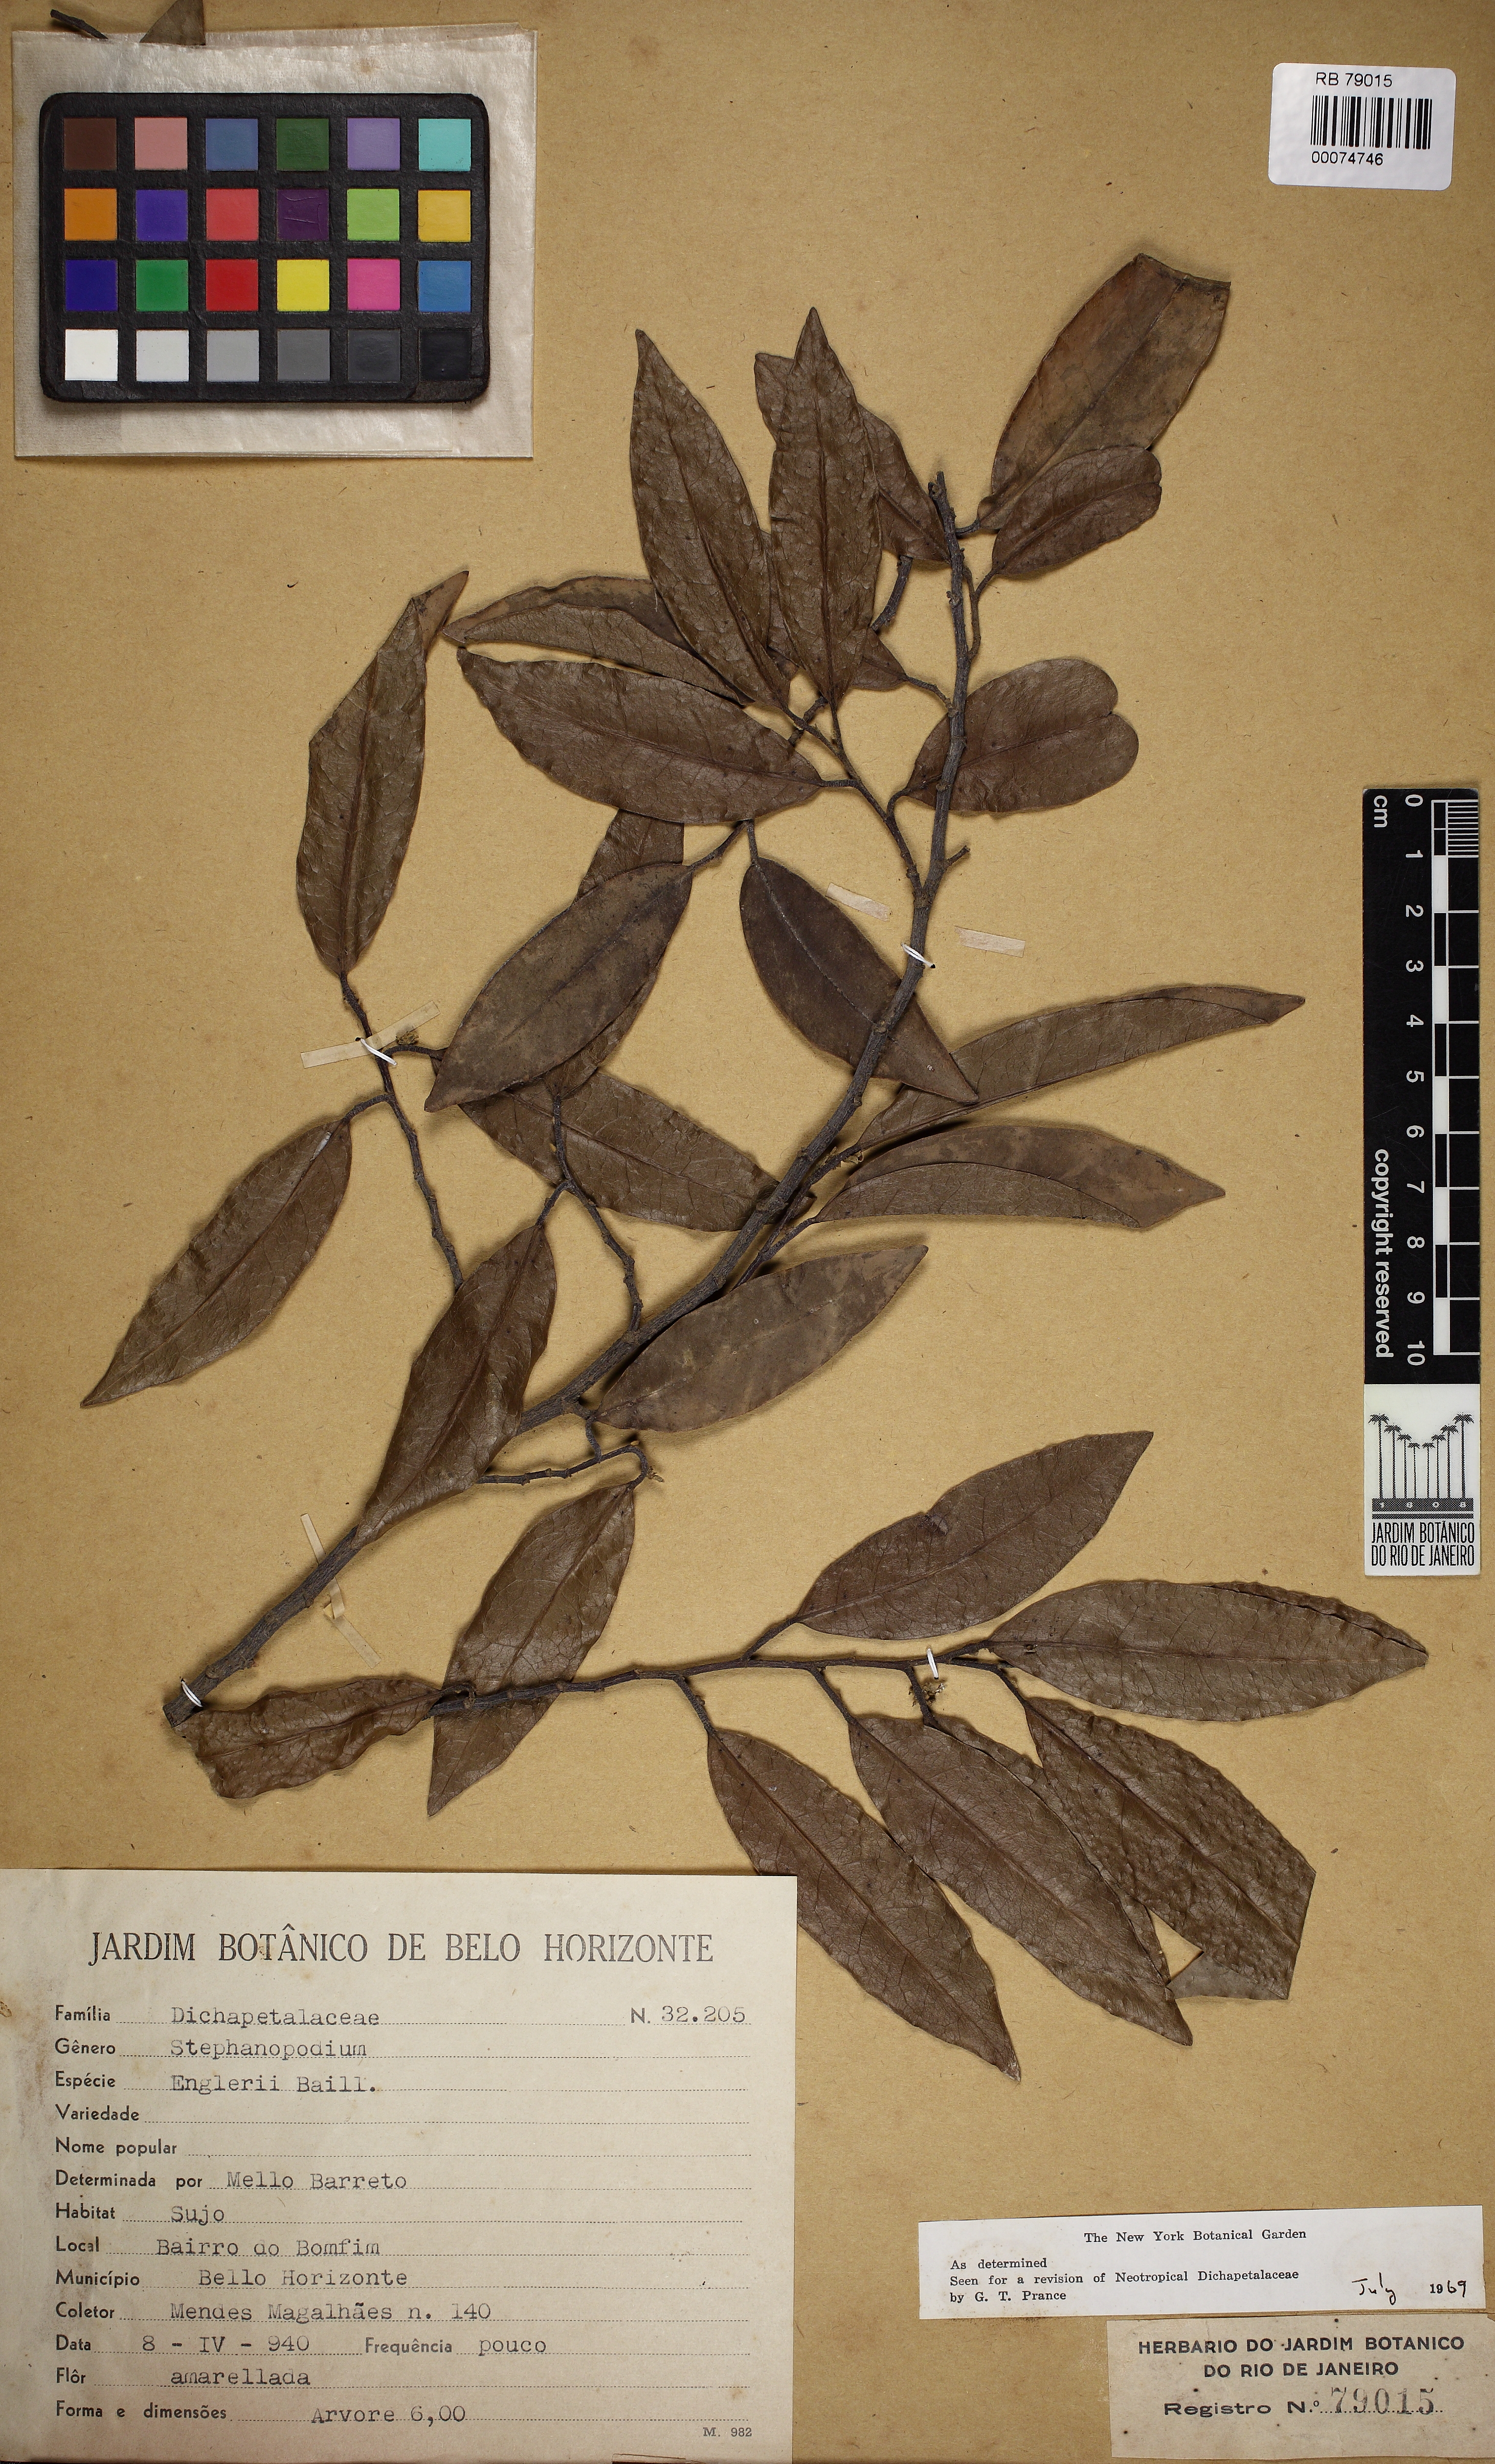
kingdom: Plantae
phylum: Tracheophyta
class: Magnoliopsida
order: Malpighiales
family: Dichapetalaceae
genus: Stephanopodium
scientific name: Stephanopodium engleri
